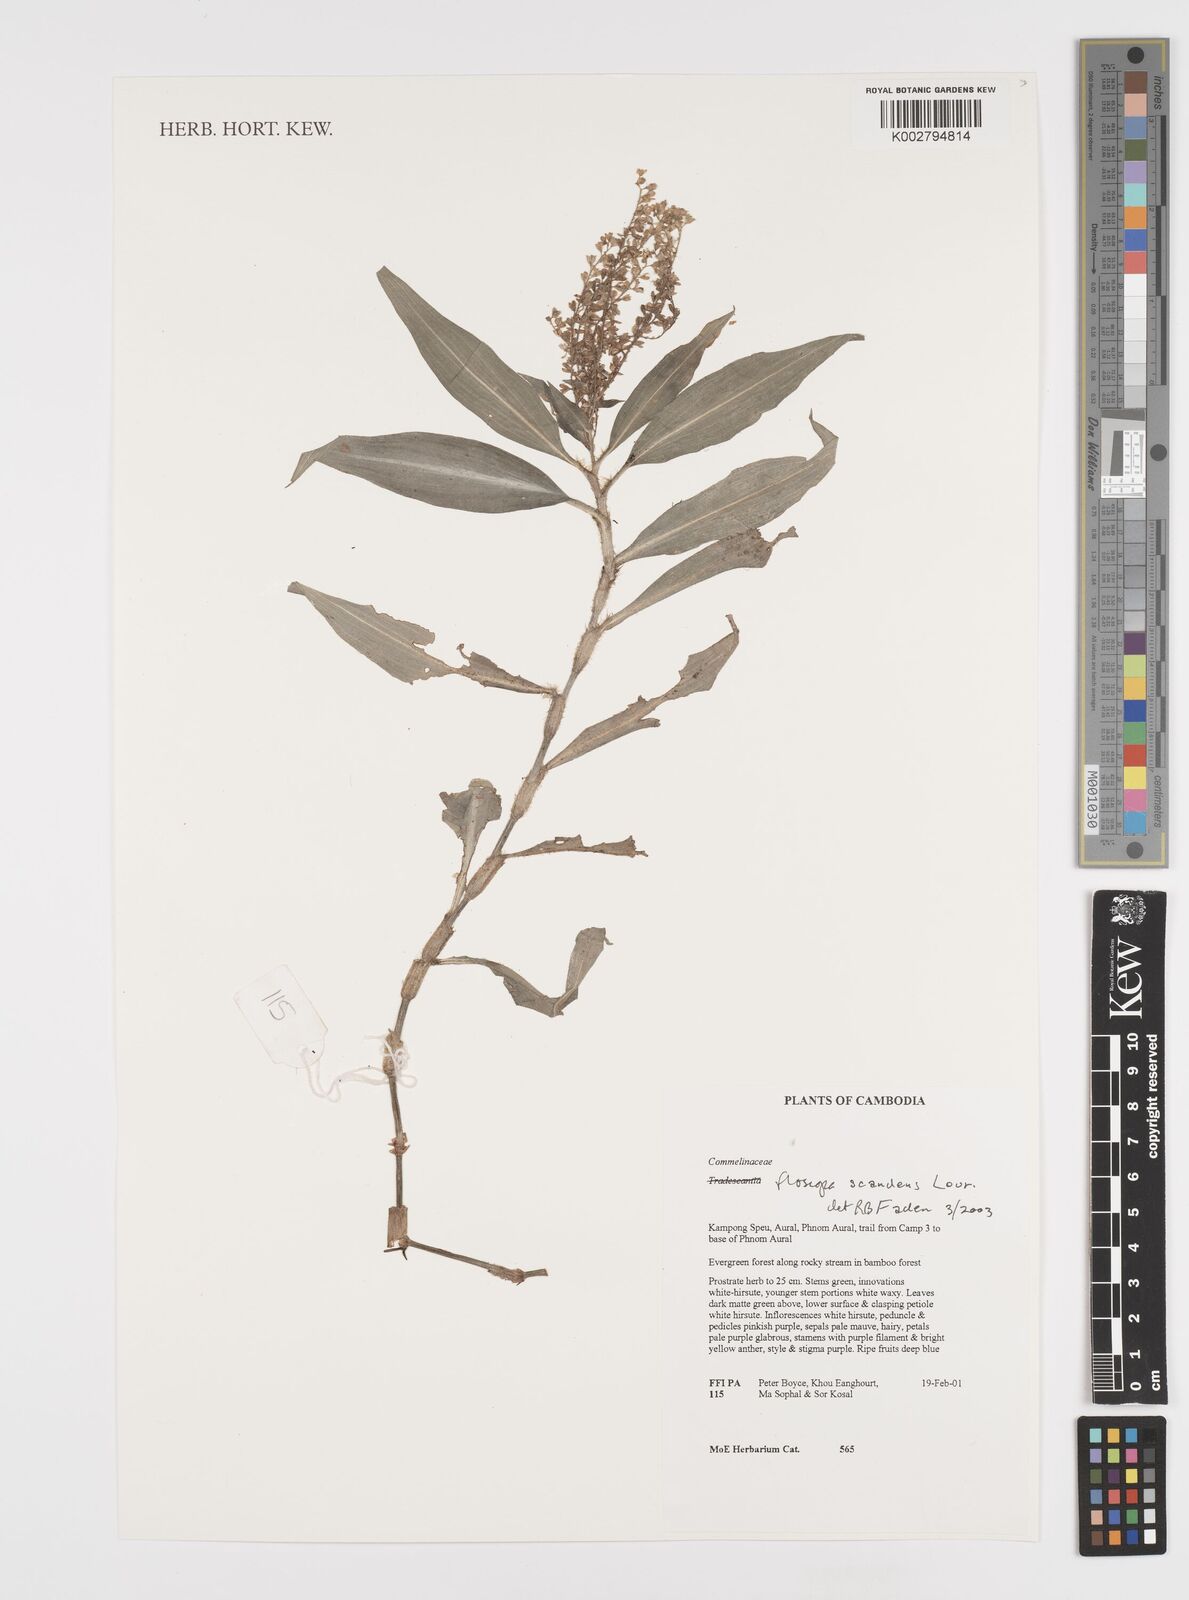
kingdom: Plantae
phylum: Tracheophyta
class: Liliopsida
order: Commelinales
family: Commelinaceae
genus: Floscopa
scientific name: Floscopa scandens
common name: Climbing flower cup
